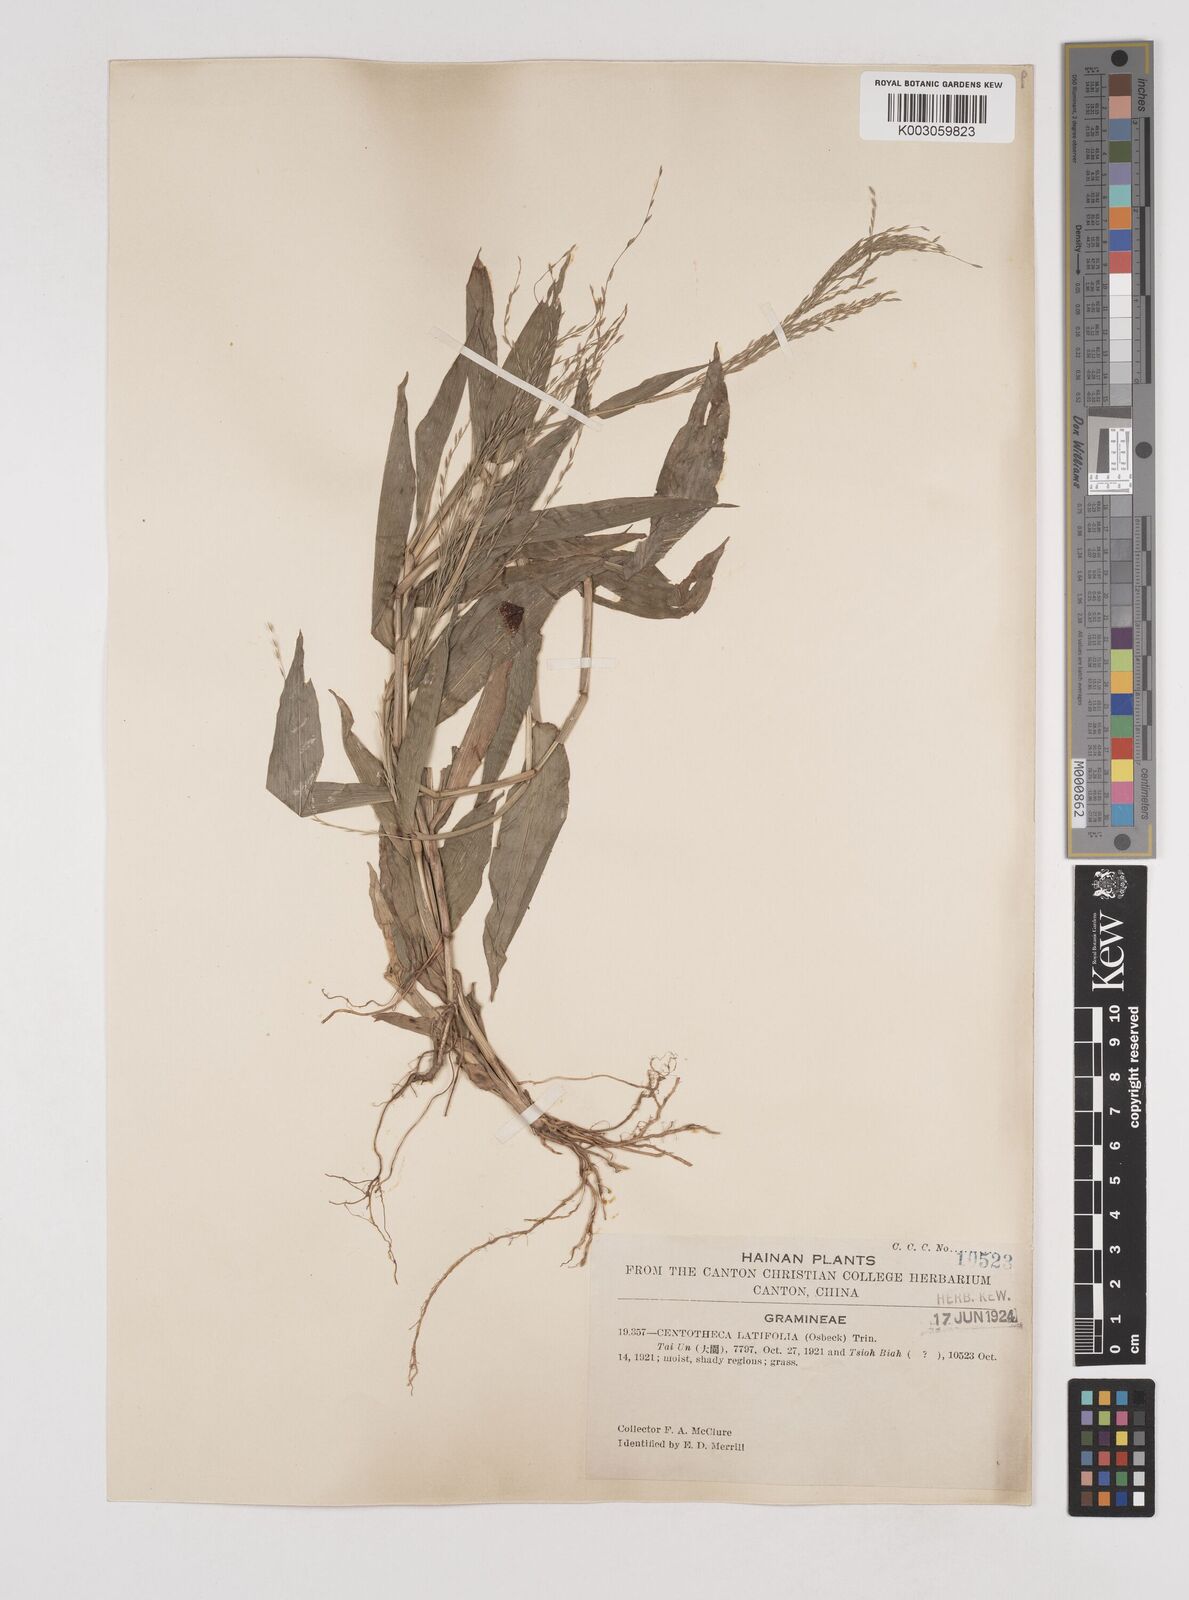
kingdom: Plantae
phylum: Tracheophyta
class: Liliopsida
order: Poales
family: Poaceae
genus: Centotheca
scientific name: Centotheca lappacea
